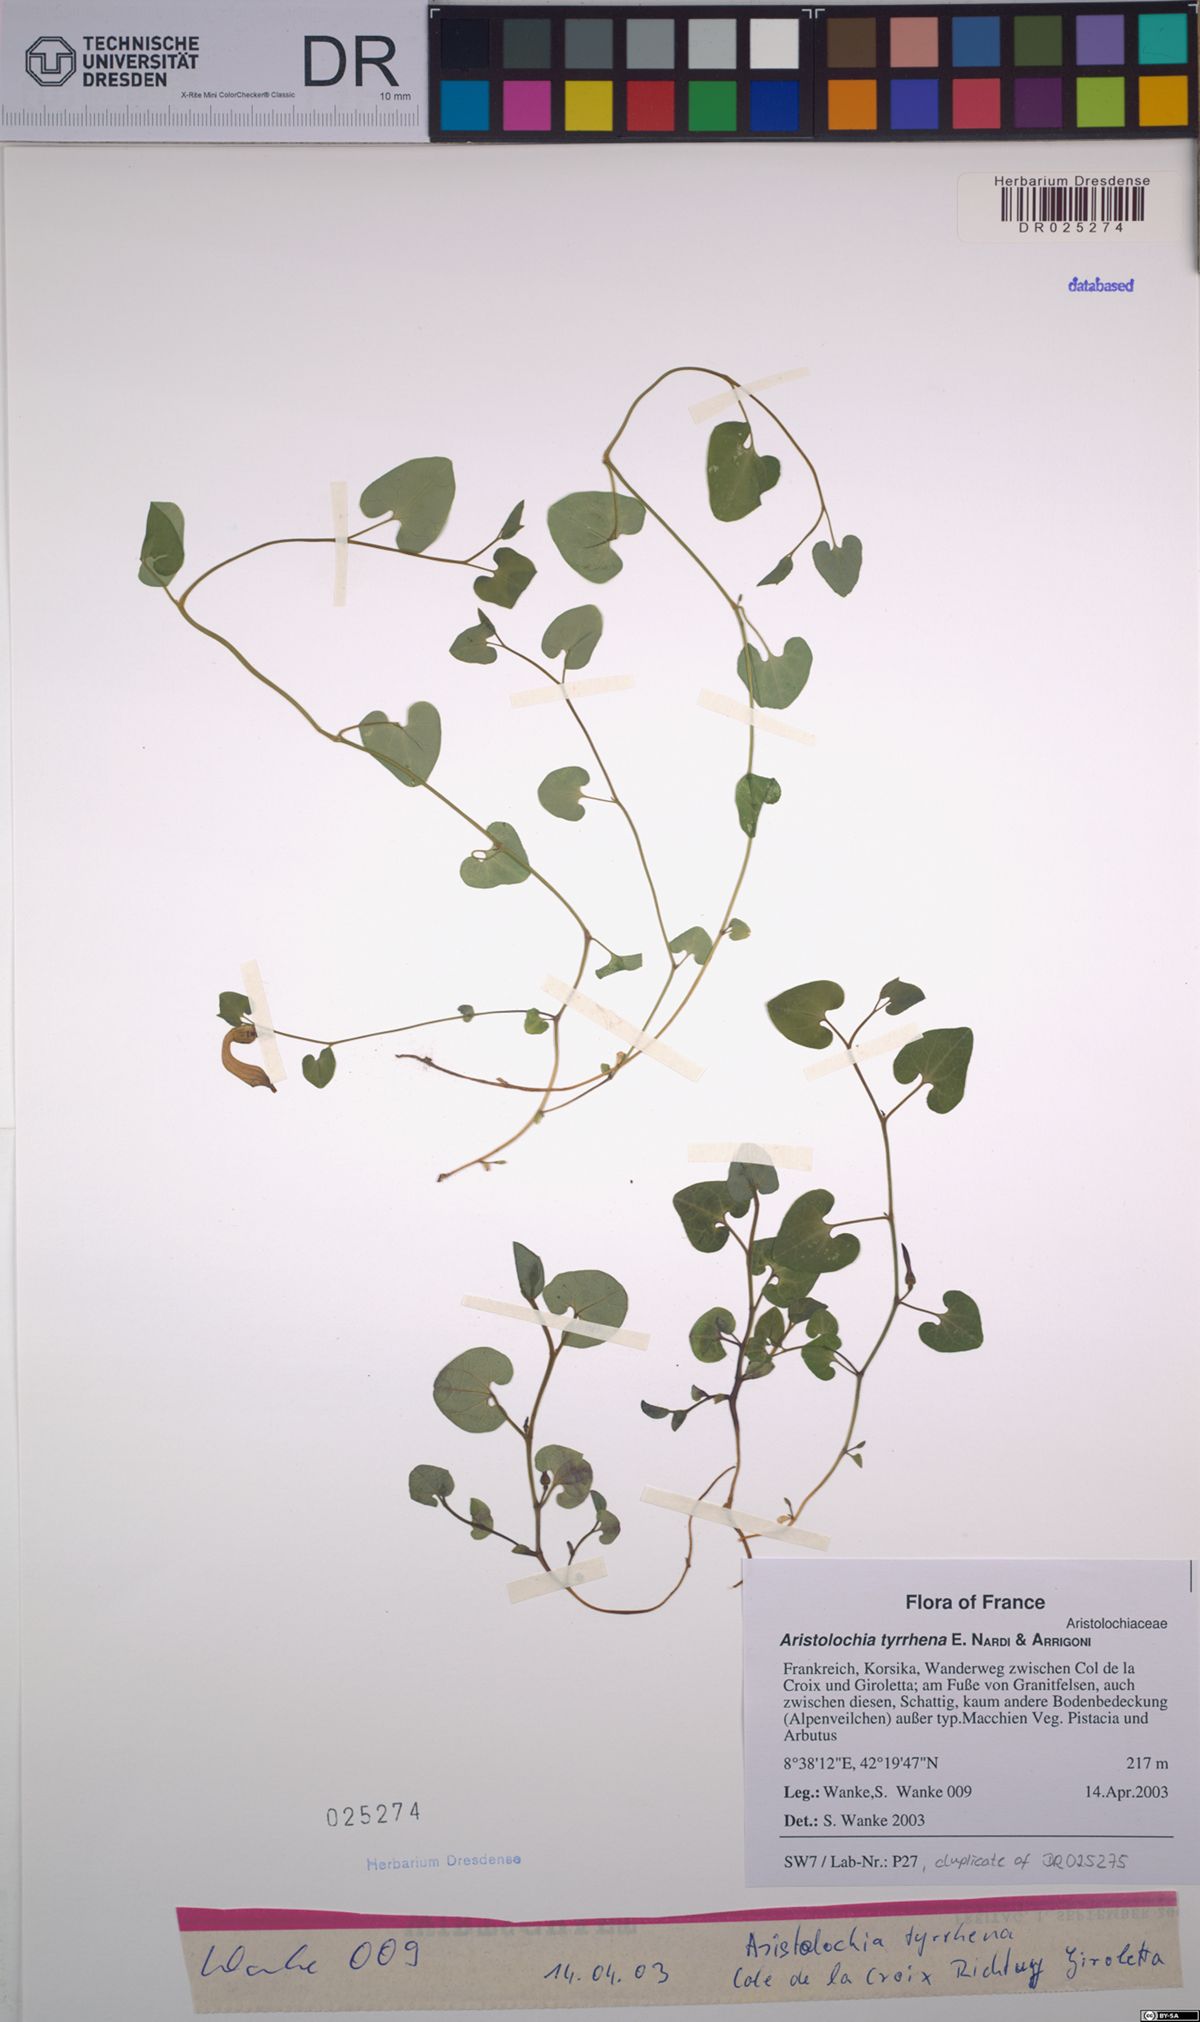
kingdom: Plantae
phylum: Tracheophyta
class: Magnoliopsida
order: Piperales
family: Aristolochiaceae
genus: Aristolochia
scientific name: Aristolochia tyrrhena
